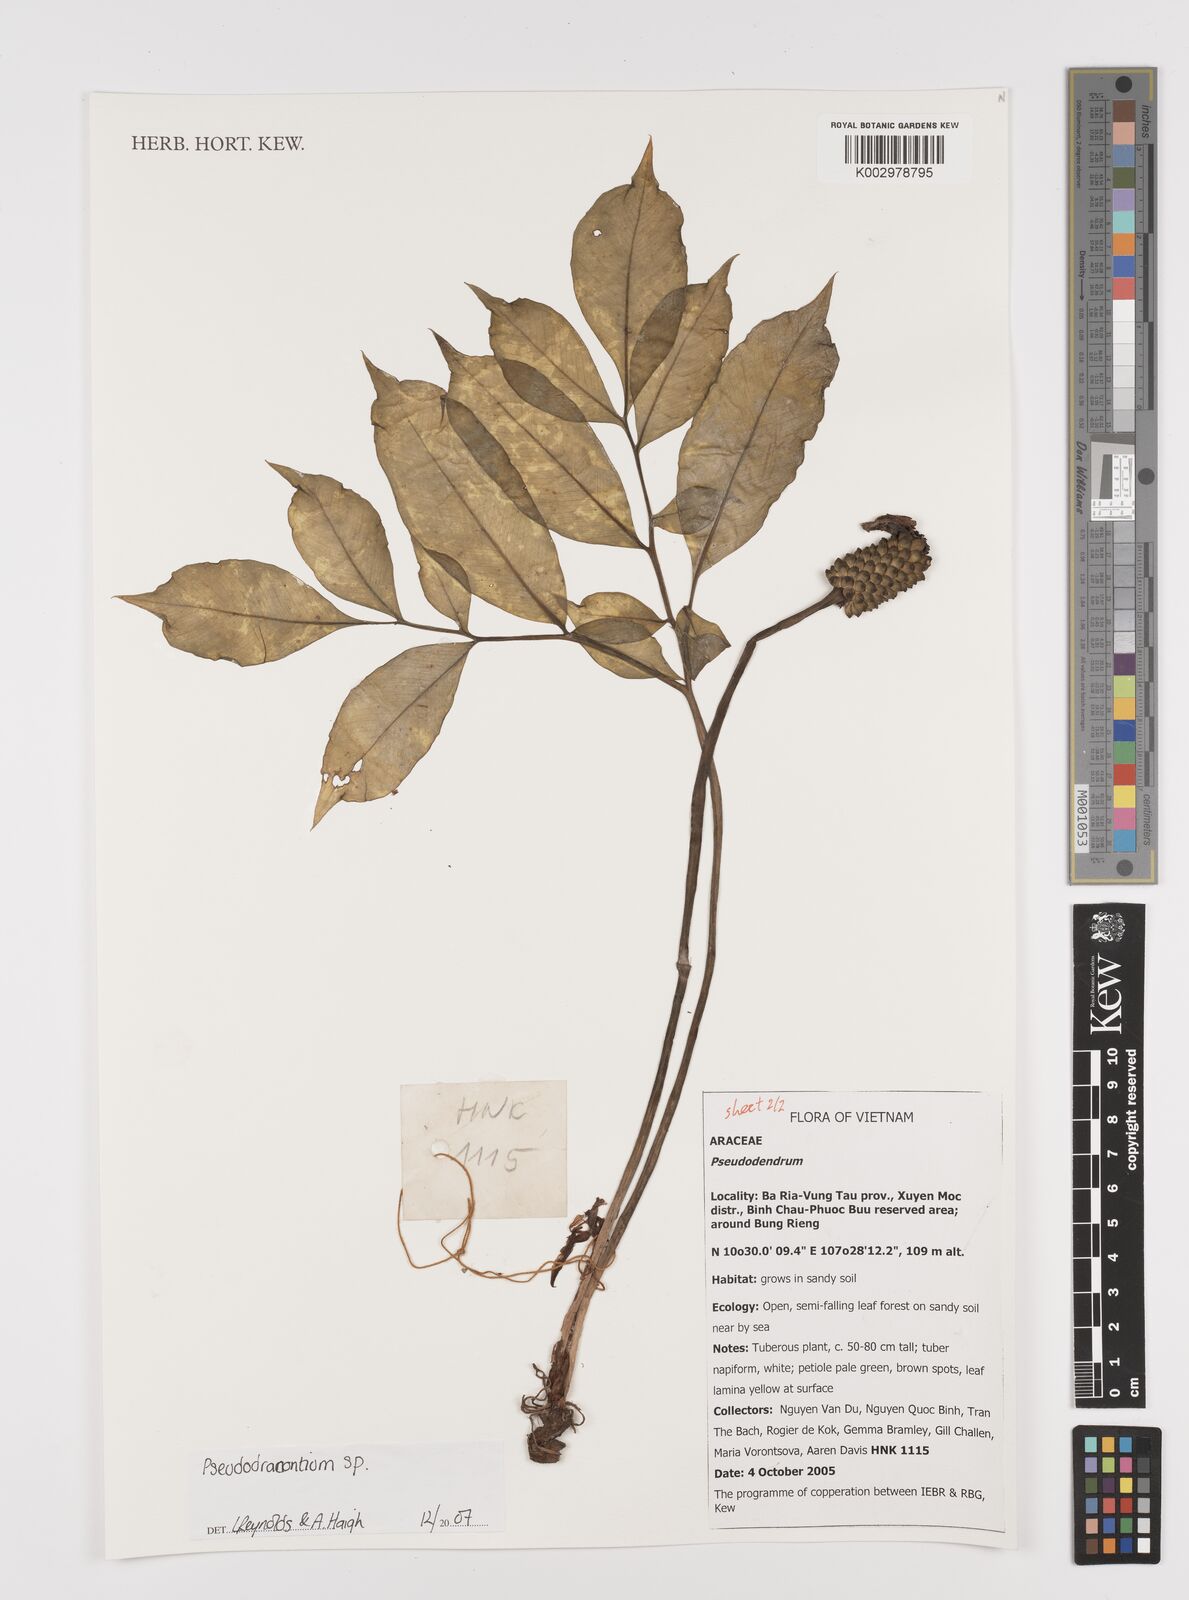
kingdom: Plantae
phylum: Tracheophyta
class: Liliopsida
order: Alismatales
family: Araceae
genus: Amorphophallus
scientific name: Amorphophallus
